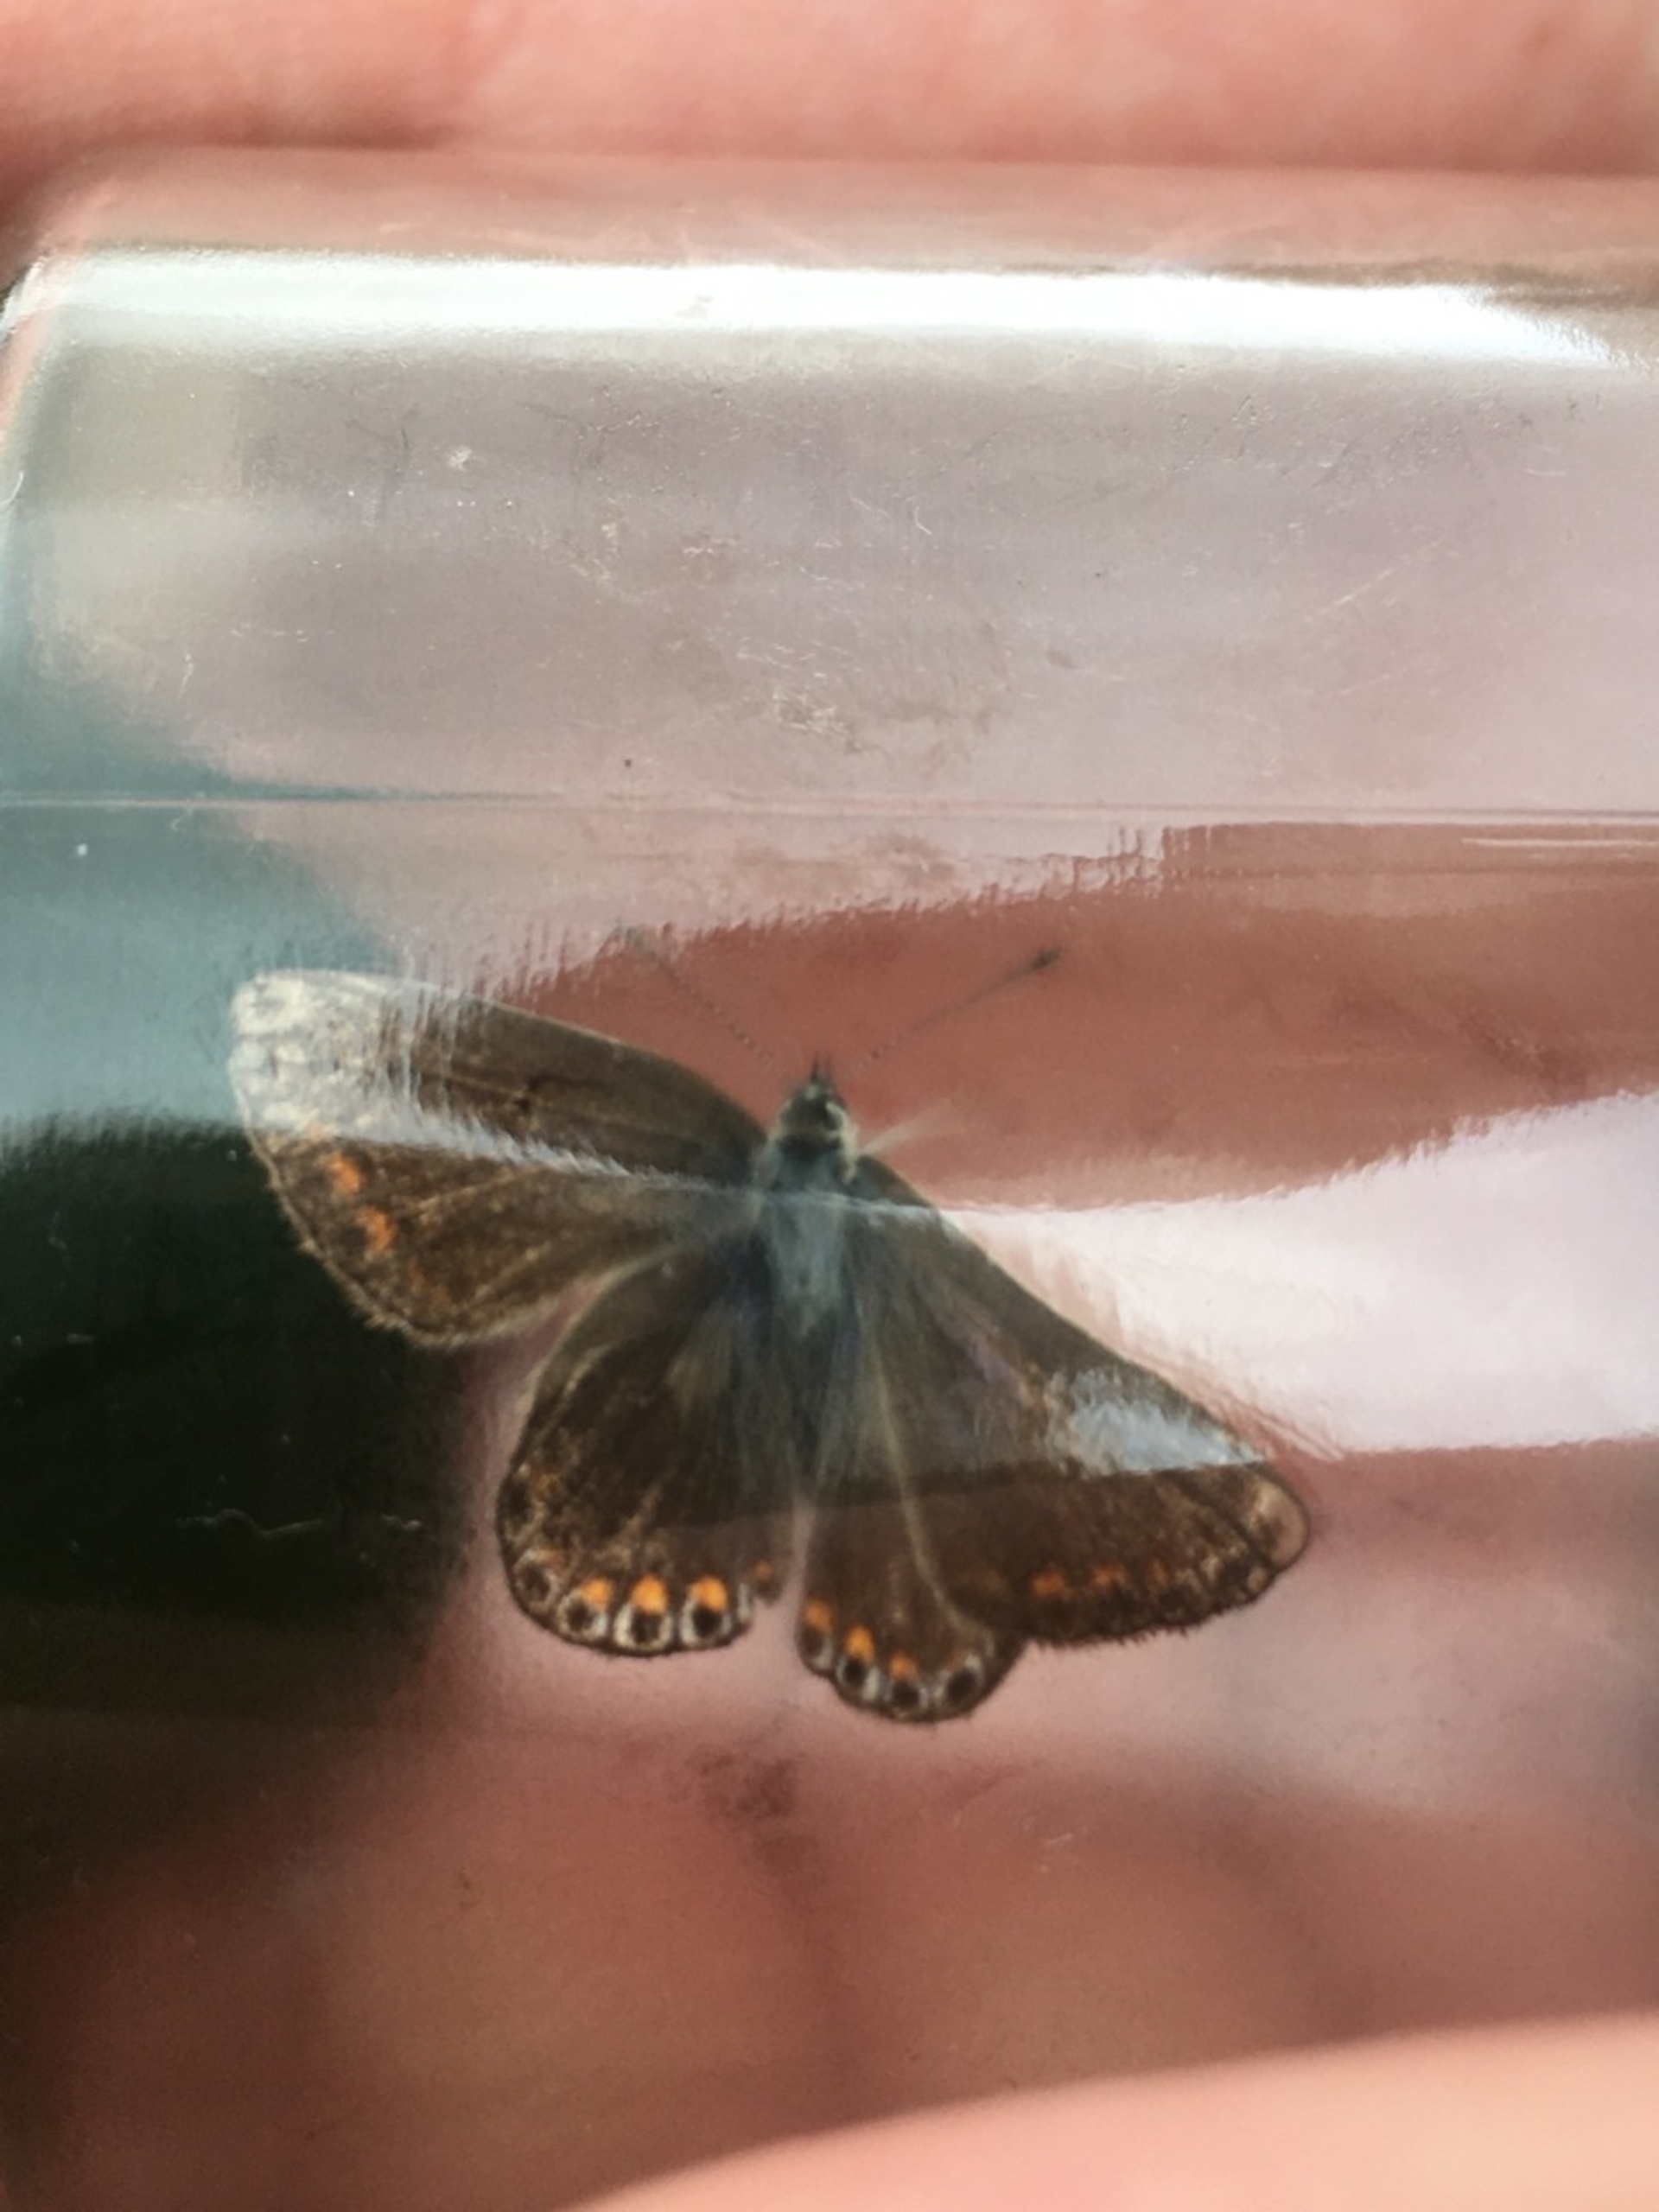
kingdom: Animalia
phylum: Arthropoda
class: Insecta
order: Lepidoptera
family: Lycaenidae
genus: Polyommatus
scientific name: Polyommatus icarus
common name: Almindelig blåfugl
